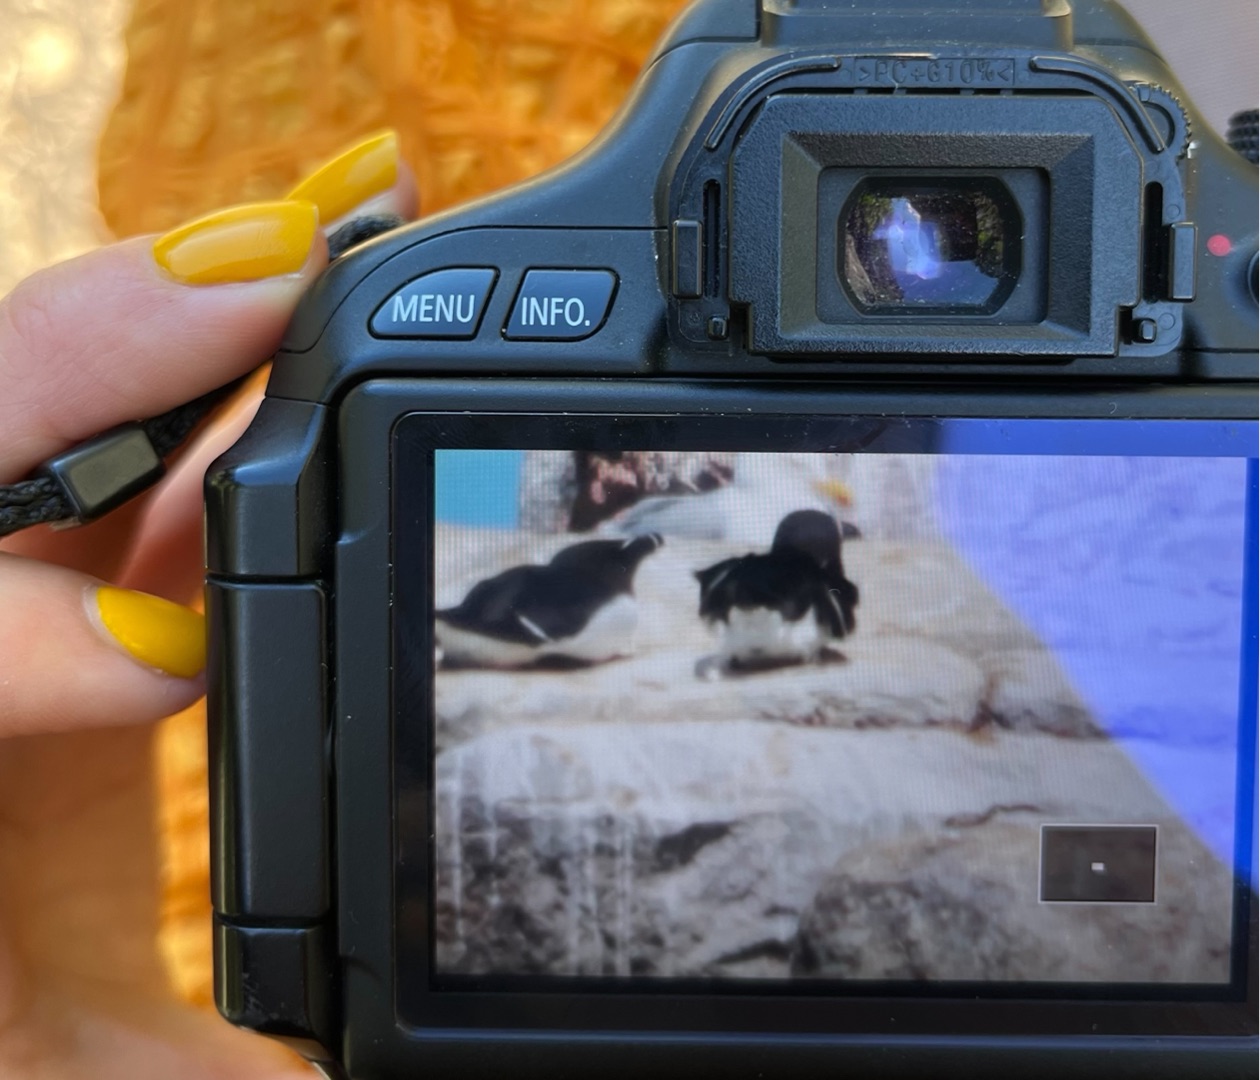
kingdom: Animalia
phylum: Chordata
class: Aves
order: Charadriiformes
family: Alcidae
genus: Alca
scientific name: Alca torda
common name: Alk
